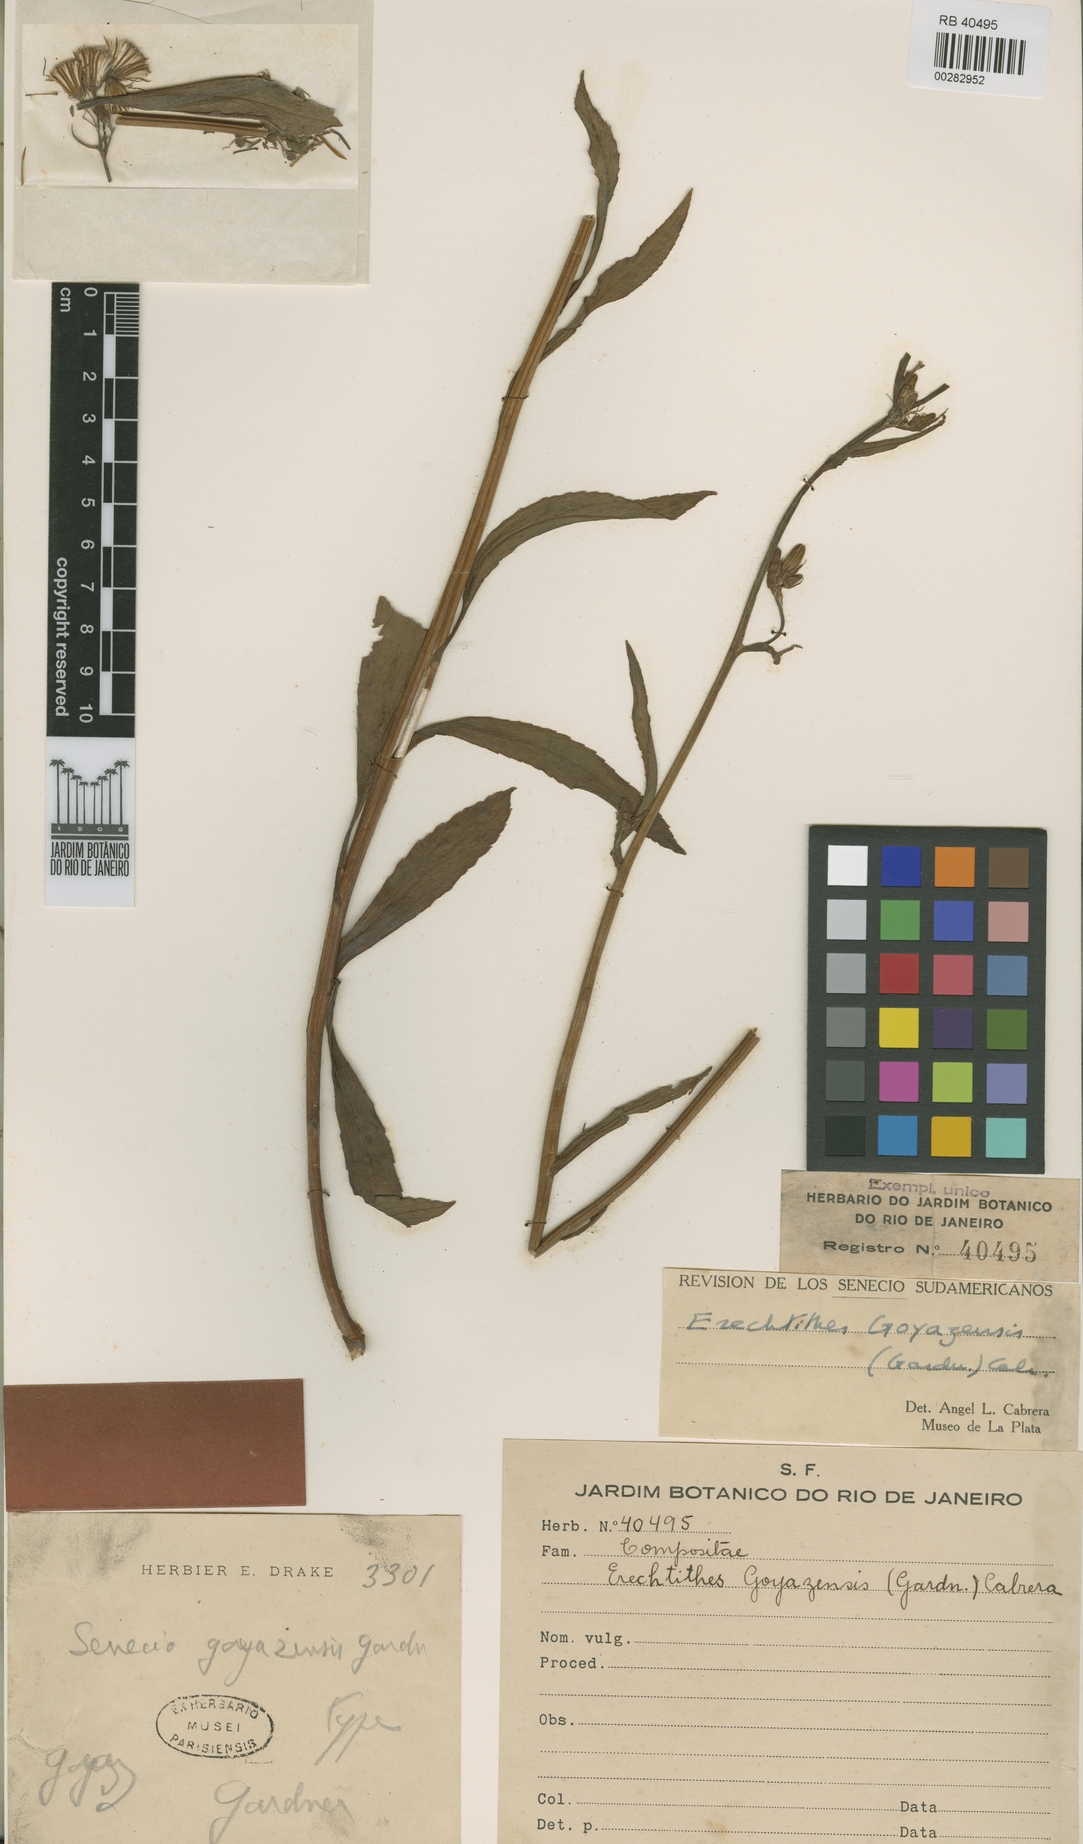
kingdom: Plantae
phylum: Tracheophyta
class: Magnoliopsida
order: Asterales
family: Asteraceae
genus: Erechtites
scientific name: Erechtites goyazensis
